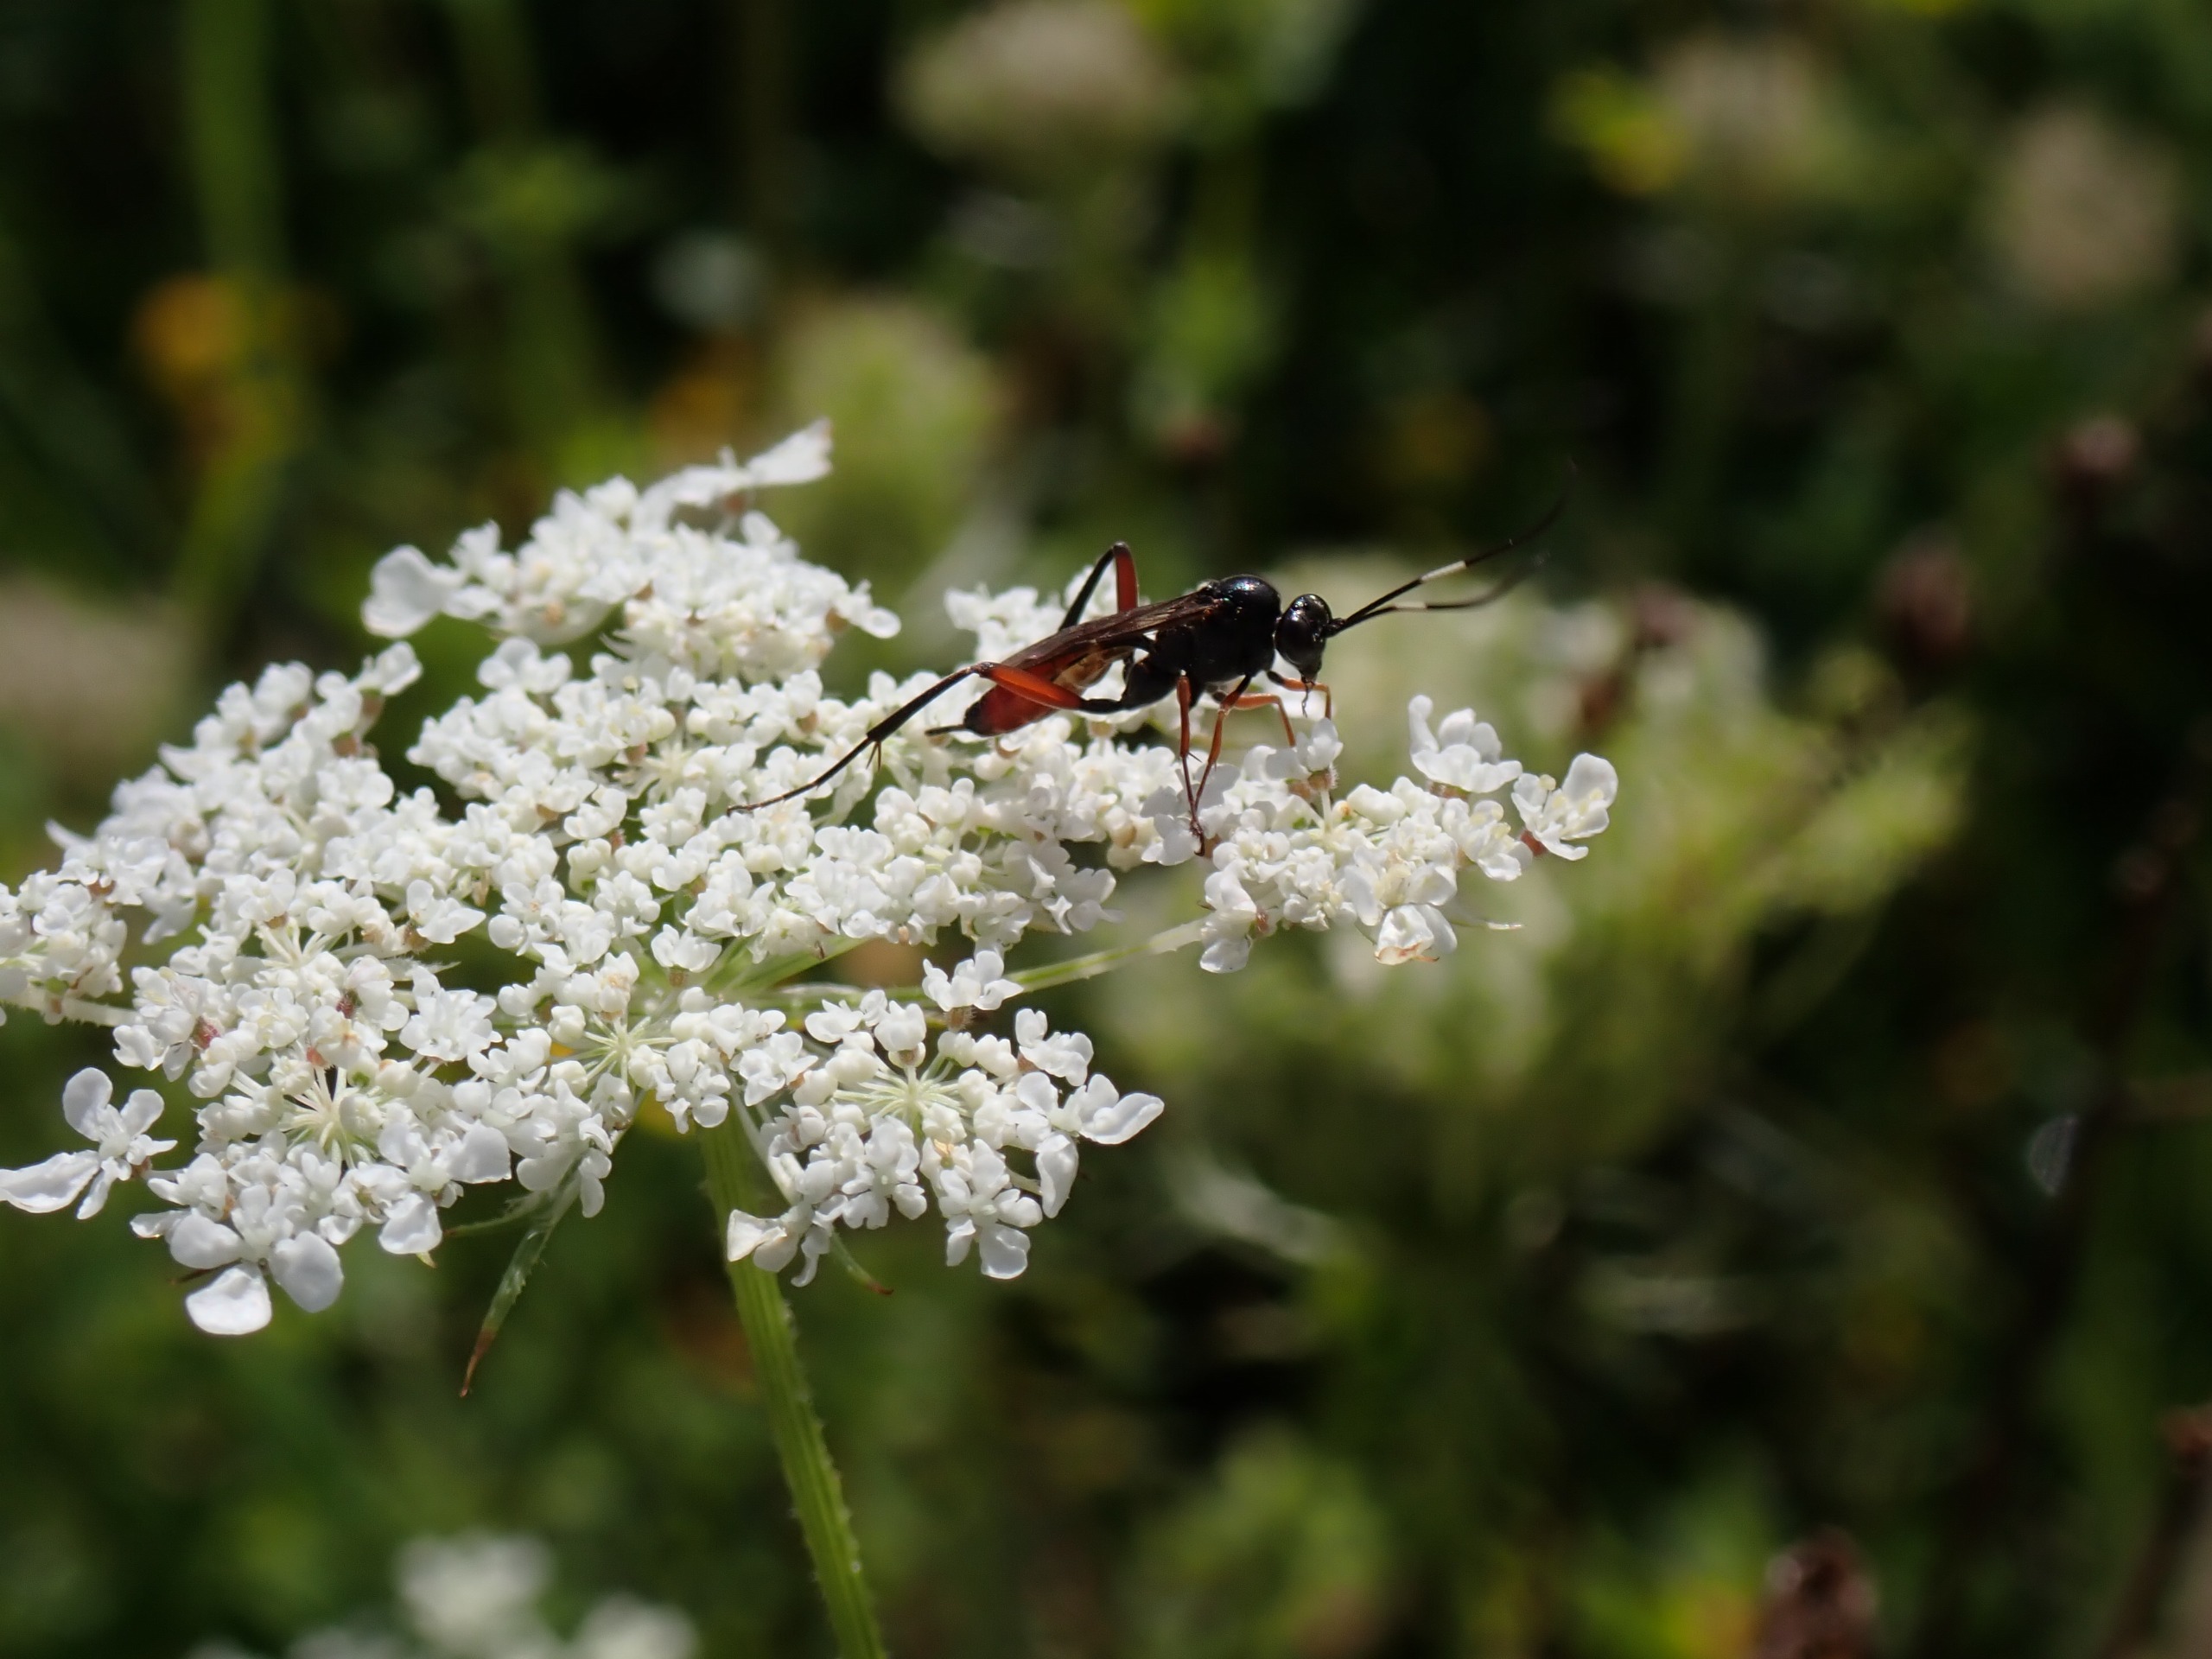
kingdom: Animalia
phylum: Arthropoda
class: Insecta
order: Hymenoptera
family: Ichneumonidae
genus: Exetastes
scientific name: Exetastes adpressorius
